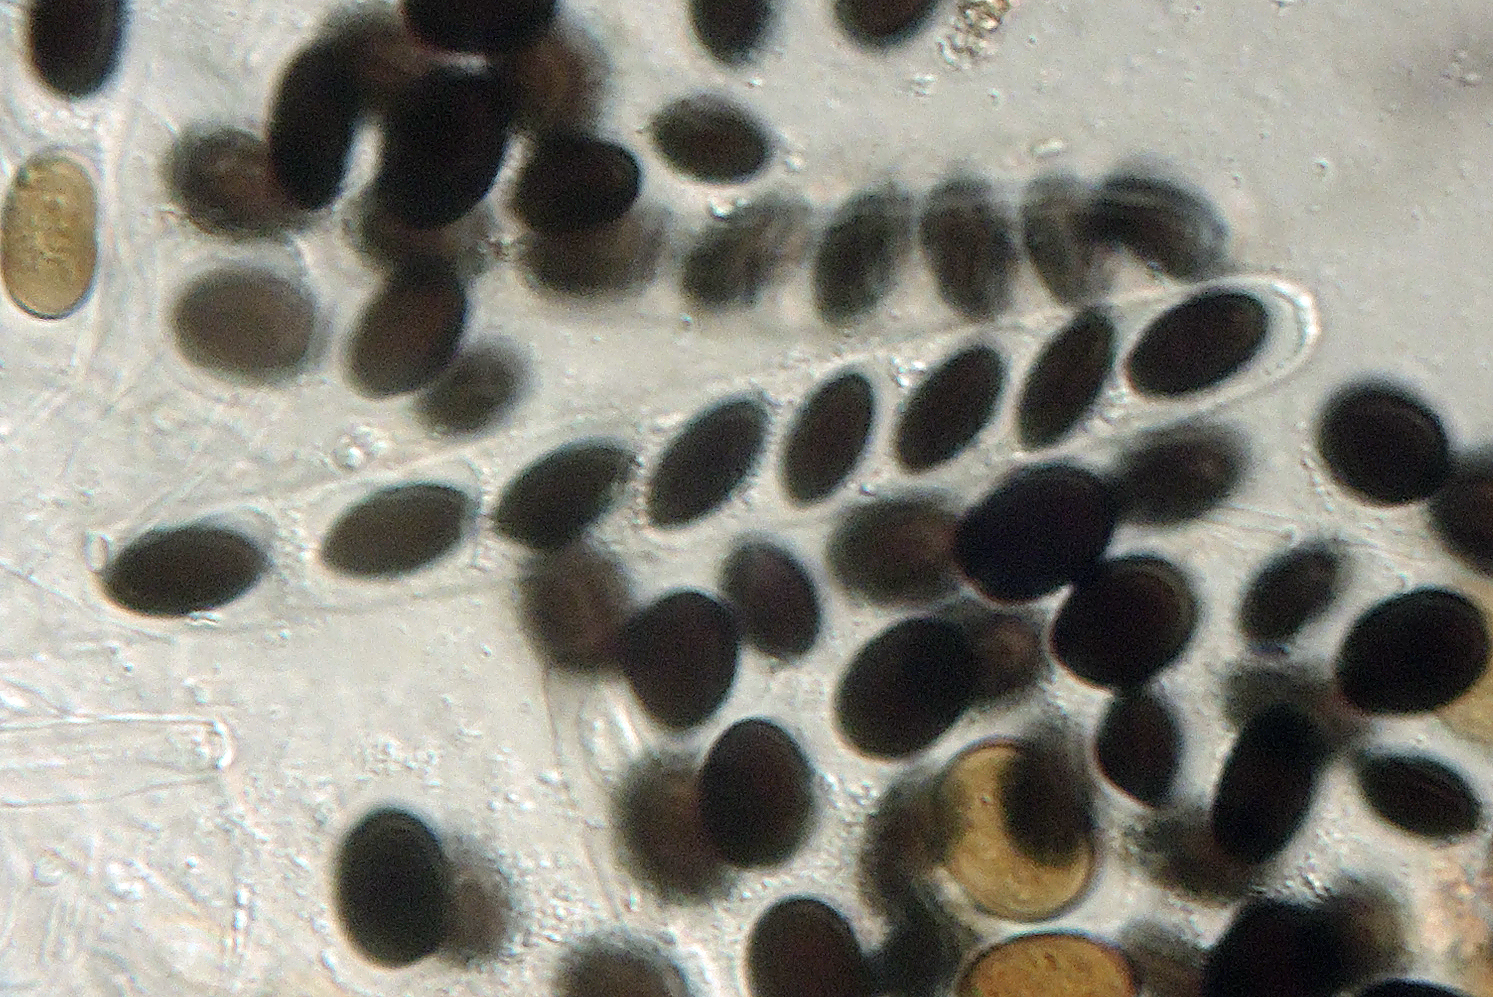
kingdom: Fungi
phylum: Ascomycota
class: Sordariomycetes
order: Coniochaetales
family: Coniochaetaceae
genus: Coniochaeta
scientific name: Coniochaeta scatigena
